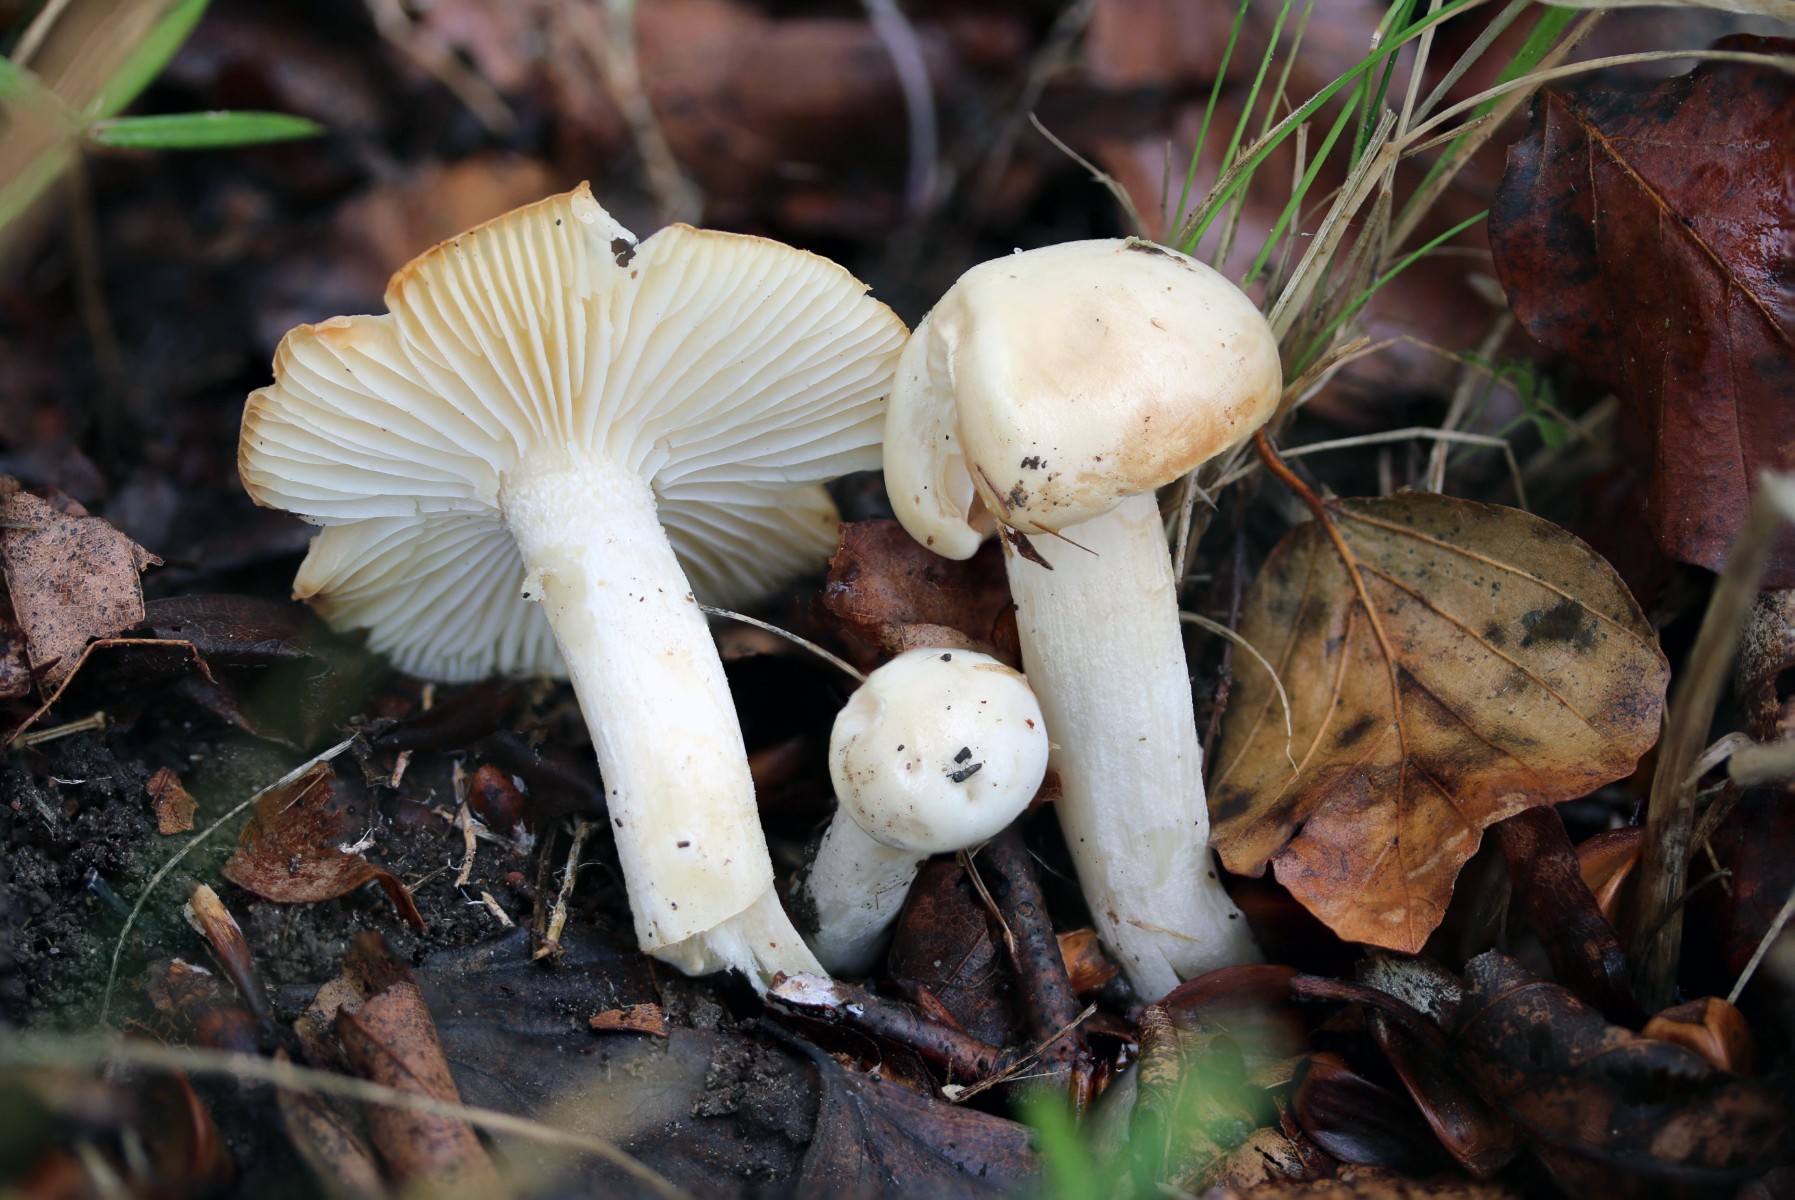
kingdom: Fungi
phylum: Basidiomycota
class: Agaricomycetes
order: Agaricales
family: Hygrophoraceae
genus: Hygrophorus
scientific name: Hygrophorus discoxanthus
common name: ildelugtende sneglehat
